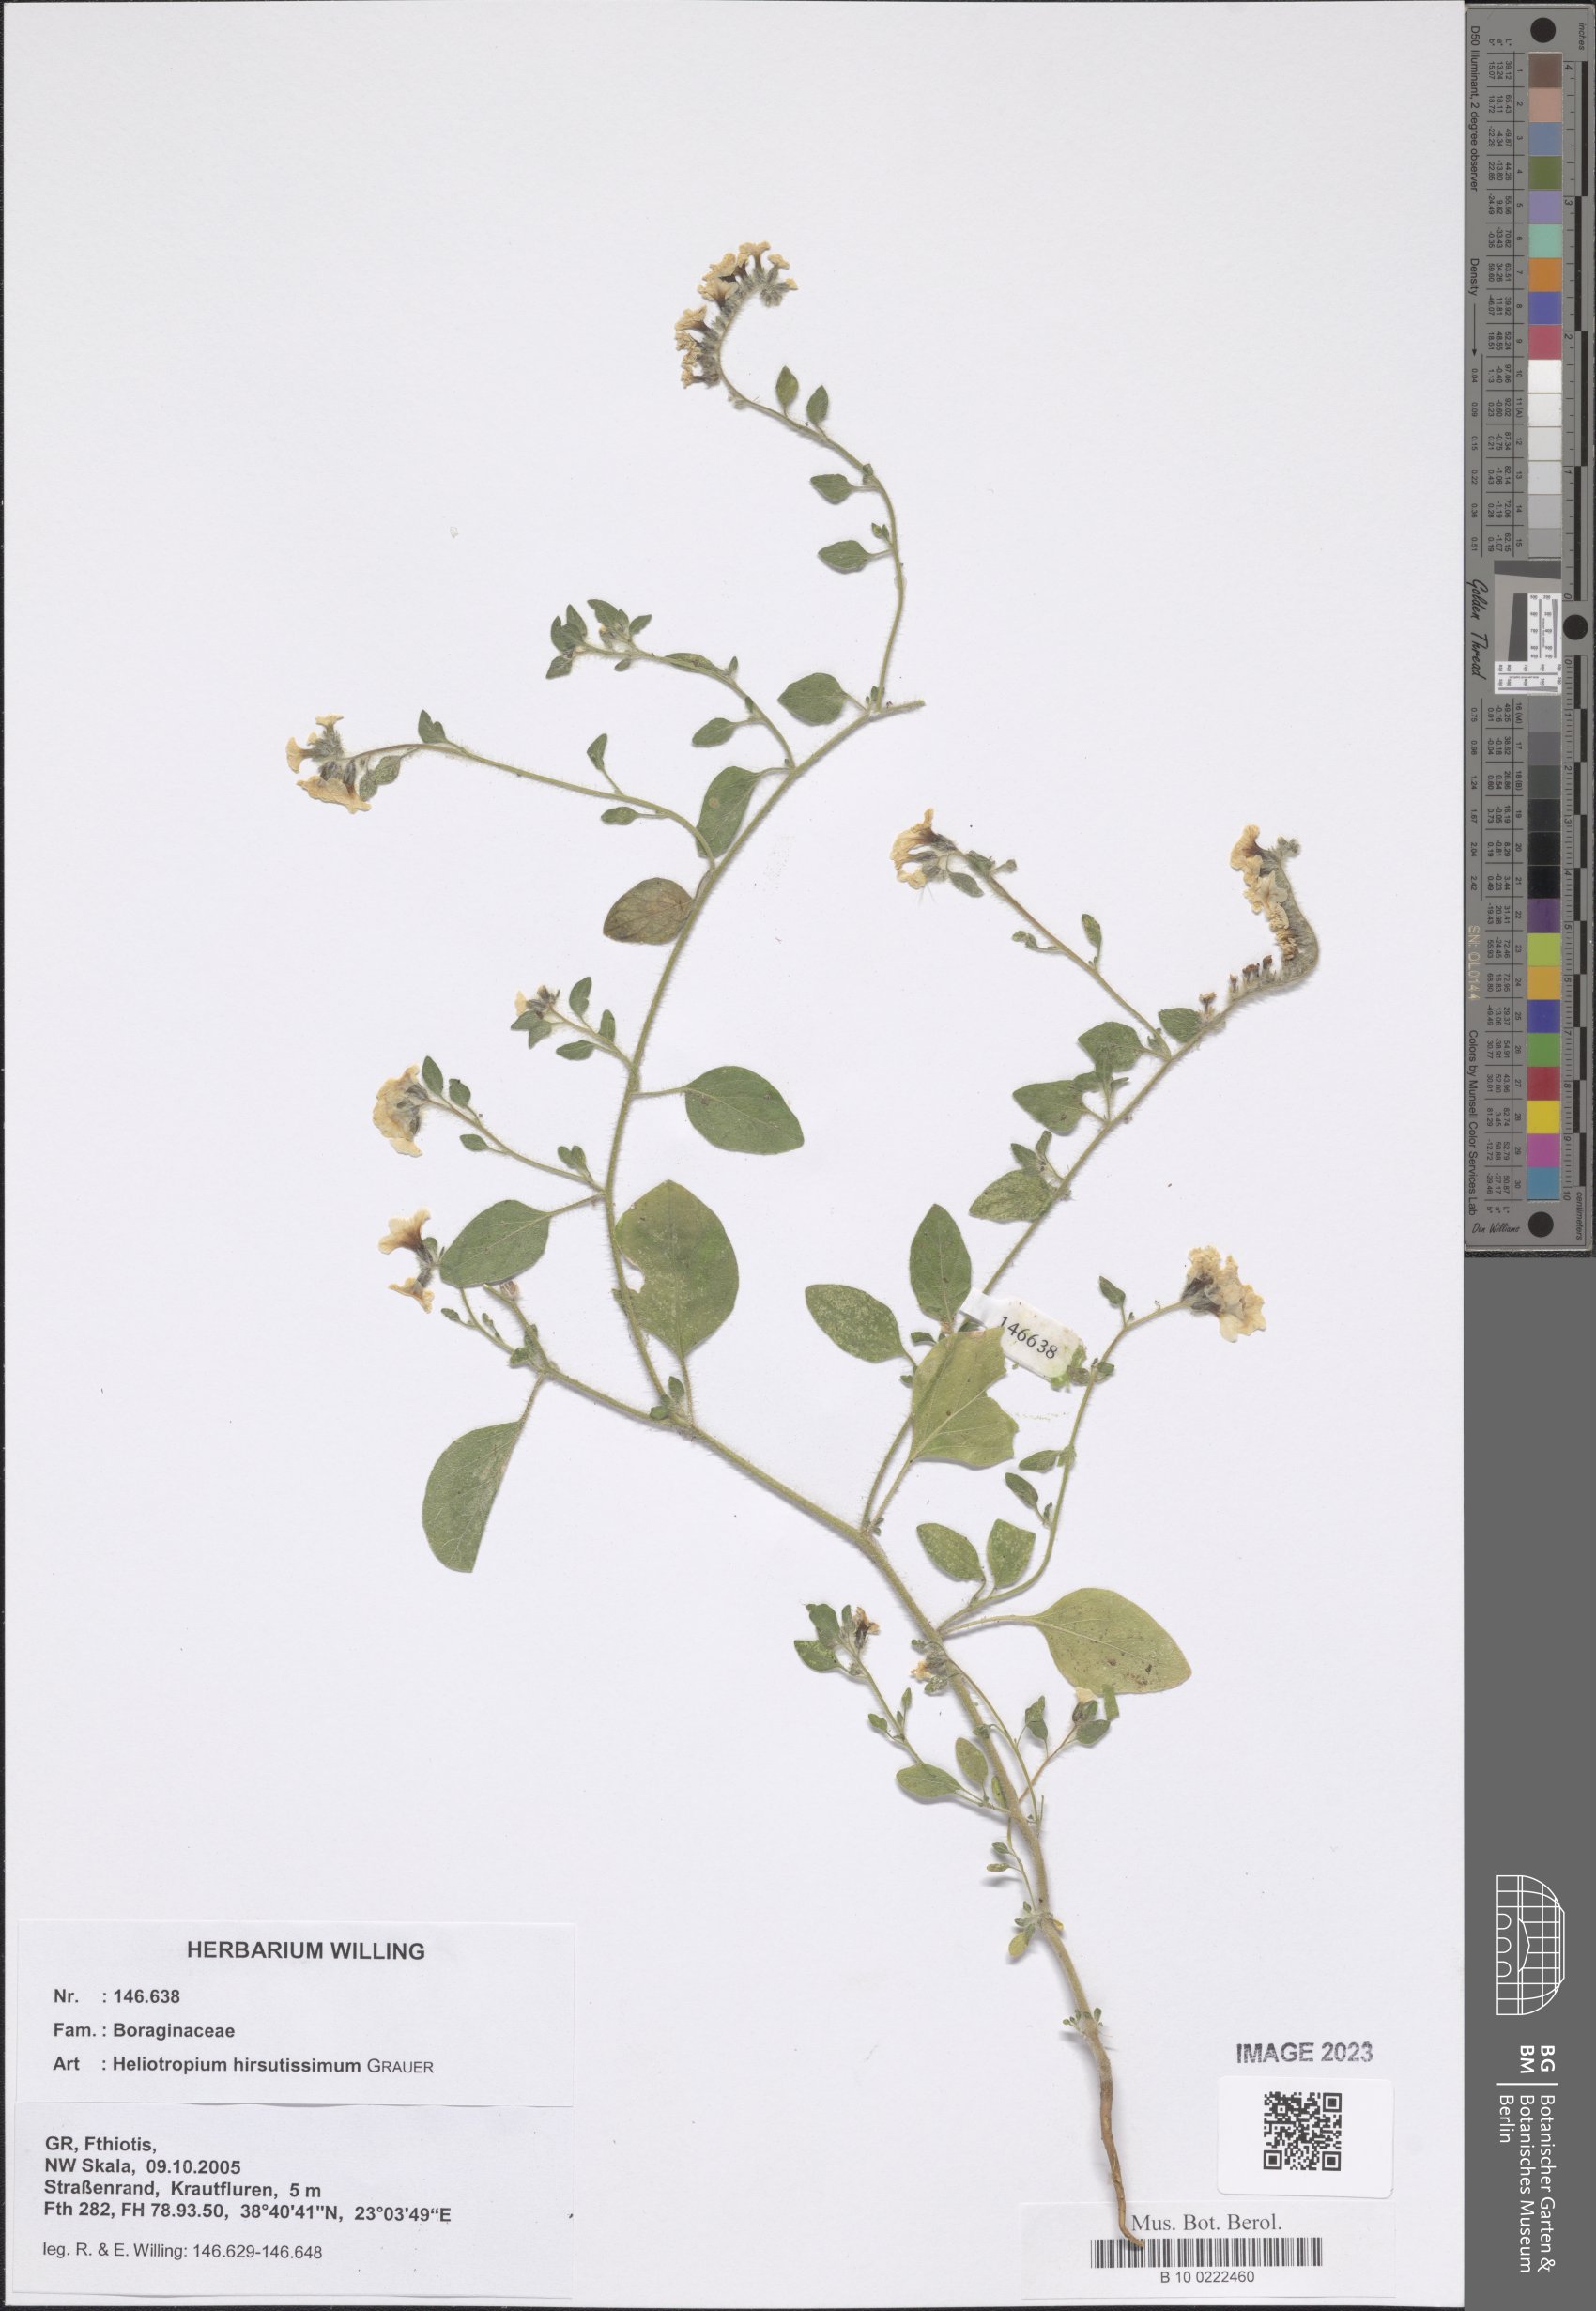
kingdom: Plantae
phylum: Tracheophyta
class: Magnoliopsida
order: Boraginales
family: Heliotropiaceae
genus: Heliotropium
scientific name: Heliotropium hirsutissimum
